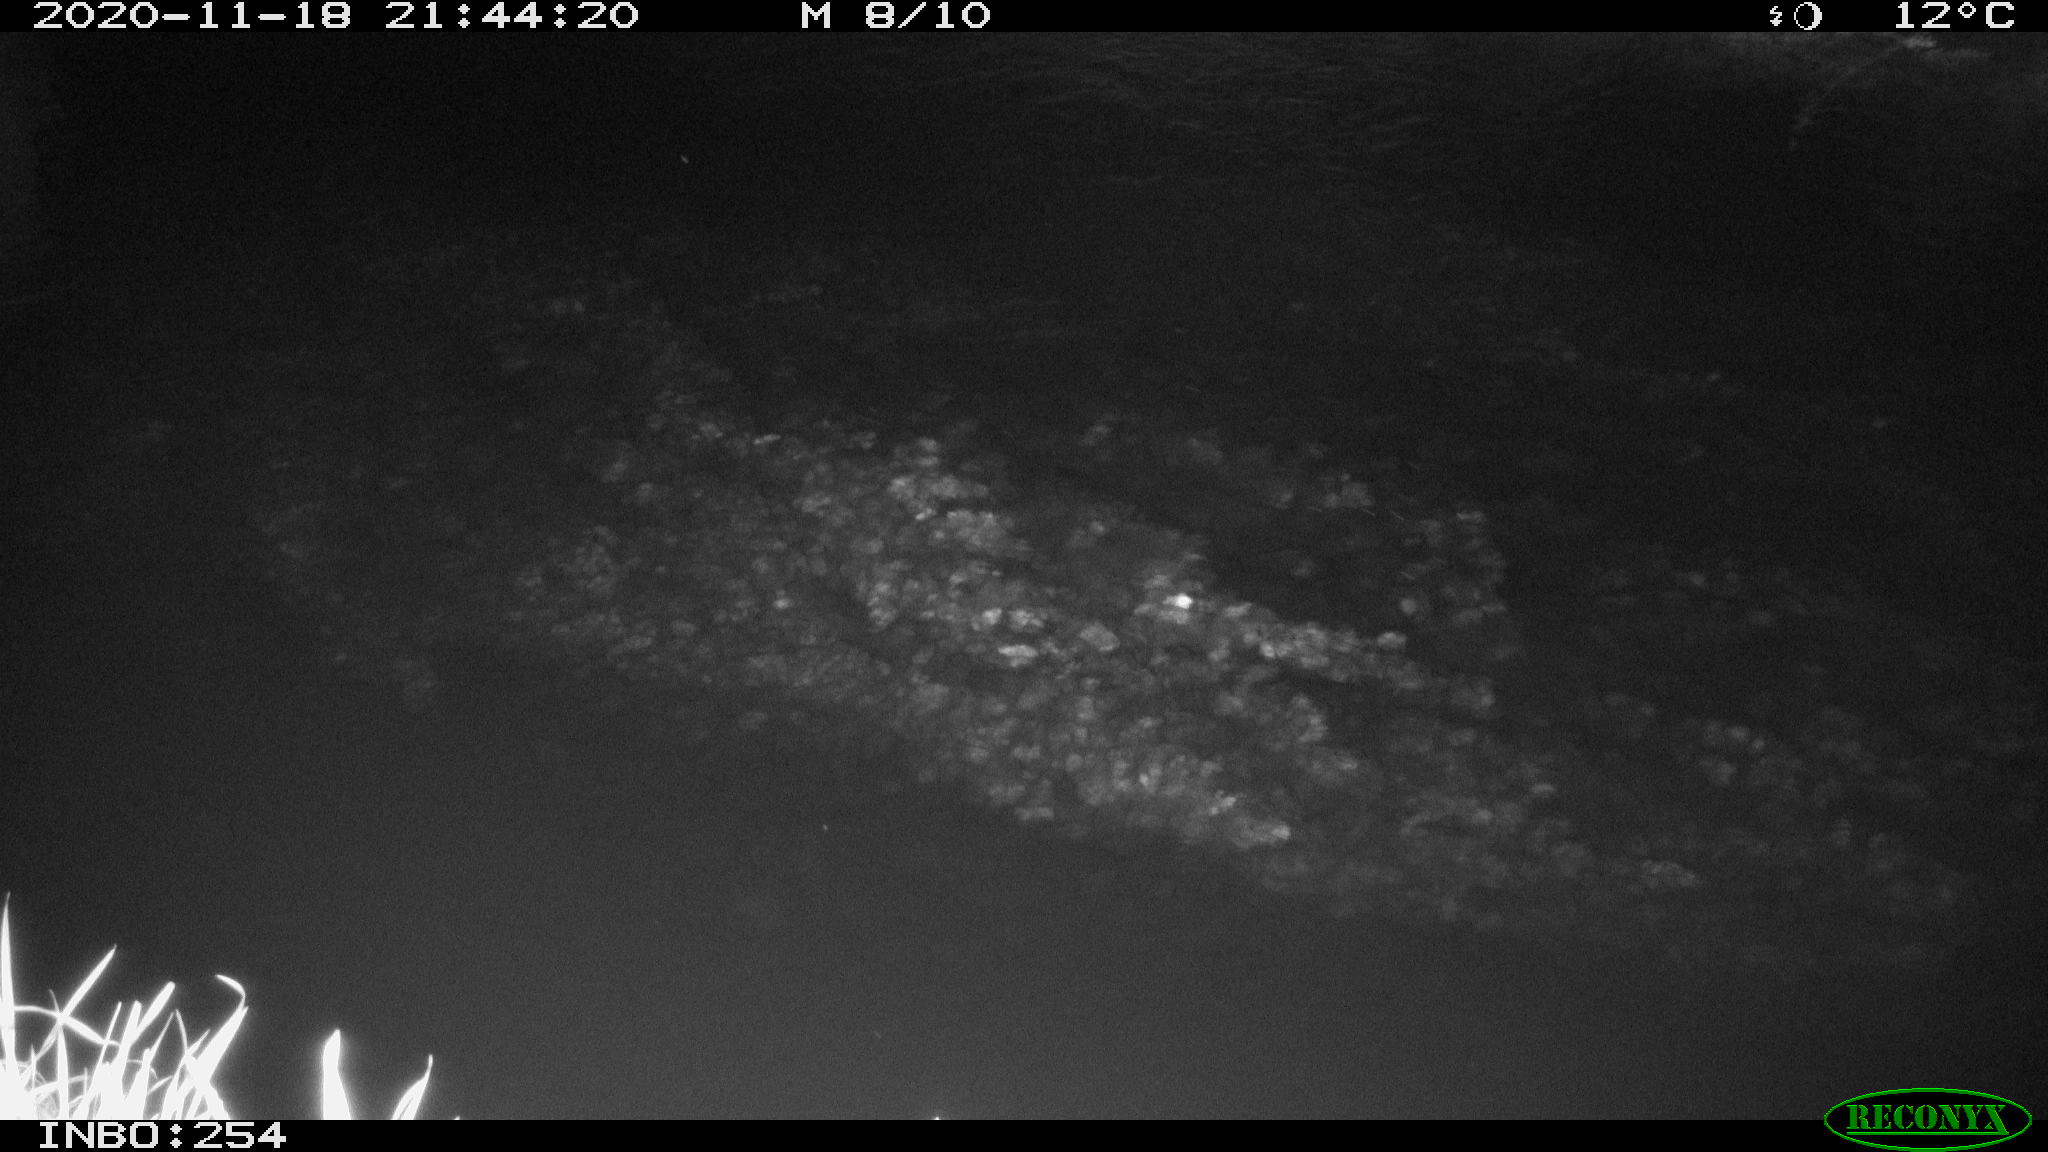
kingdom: Animalia
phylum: Chordata
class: Mammalia
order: Rodentia
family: Muridae
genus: Rattus
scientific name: Rattus norvegicus
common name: Brown rat
